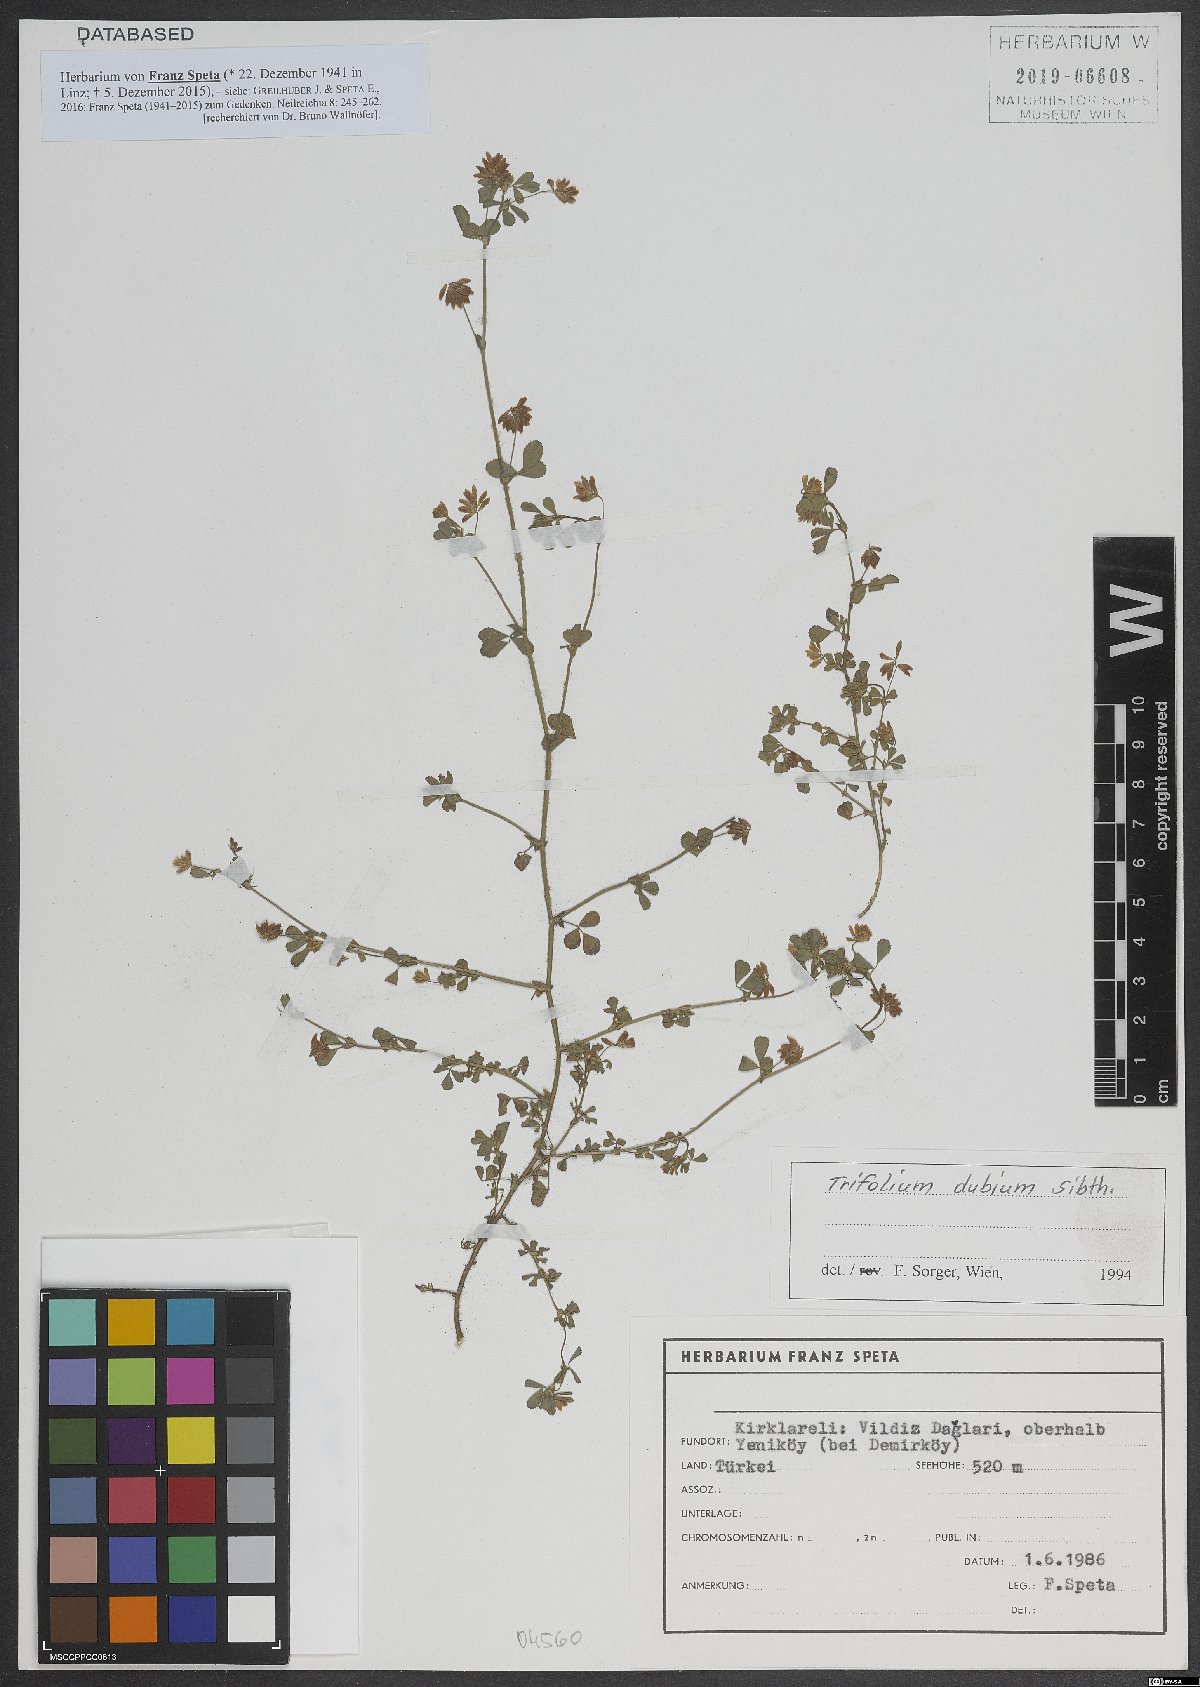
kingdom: Plantae
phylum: Tracheophyta
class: Magnoliopsida
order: Fabales
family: Fabaceae
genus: Trifolium
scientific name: Trifolium dubium
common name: Suckling clover
